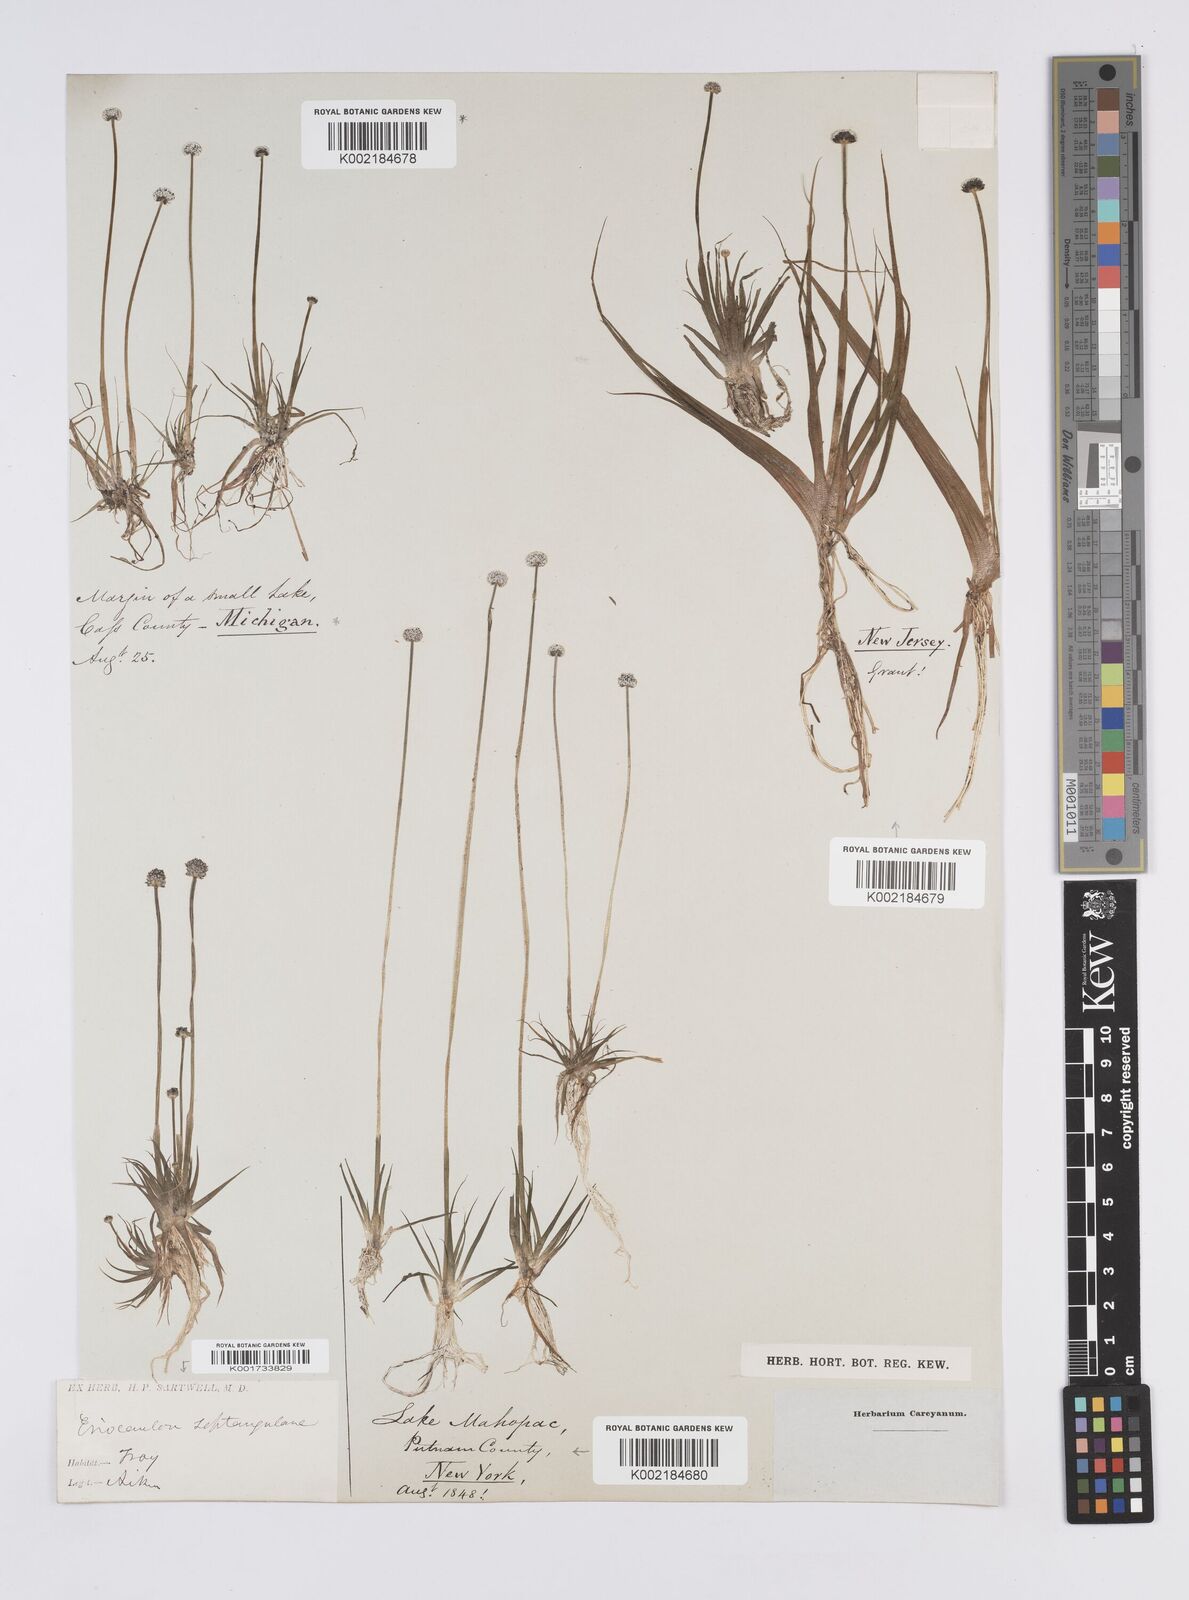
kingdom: Plantae
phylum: Tracheophyta
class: Liliopsida
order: Poales
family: Eriocaulaceae
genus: Eriocaulon
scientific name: Eriocaulon aquaticum
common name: Pipewort
